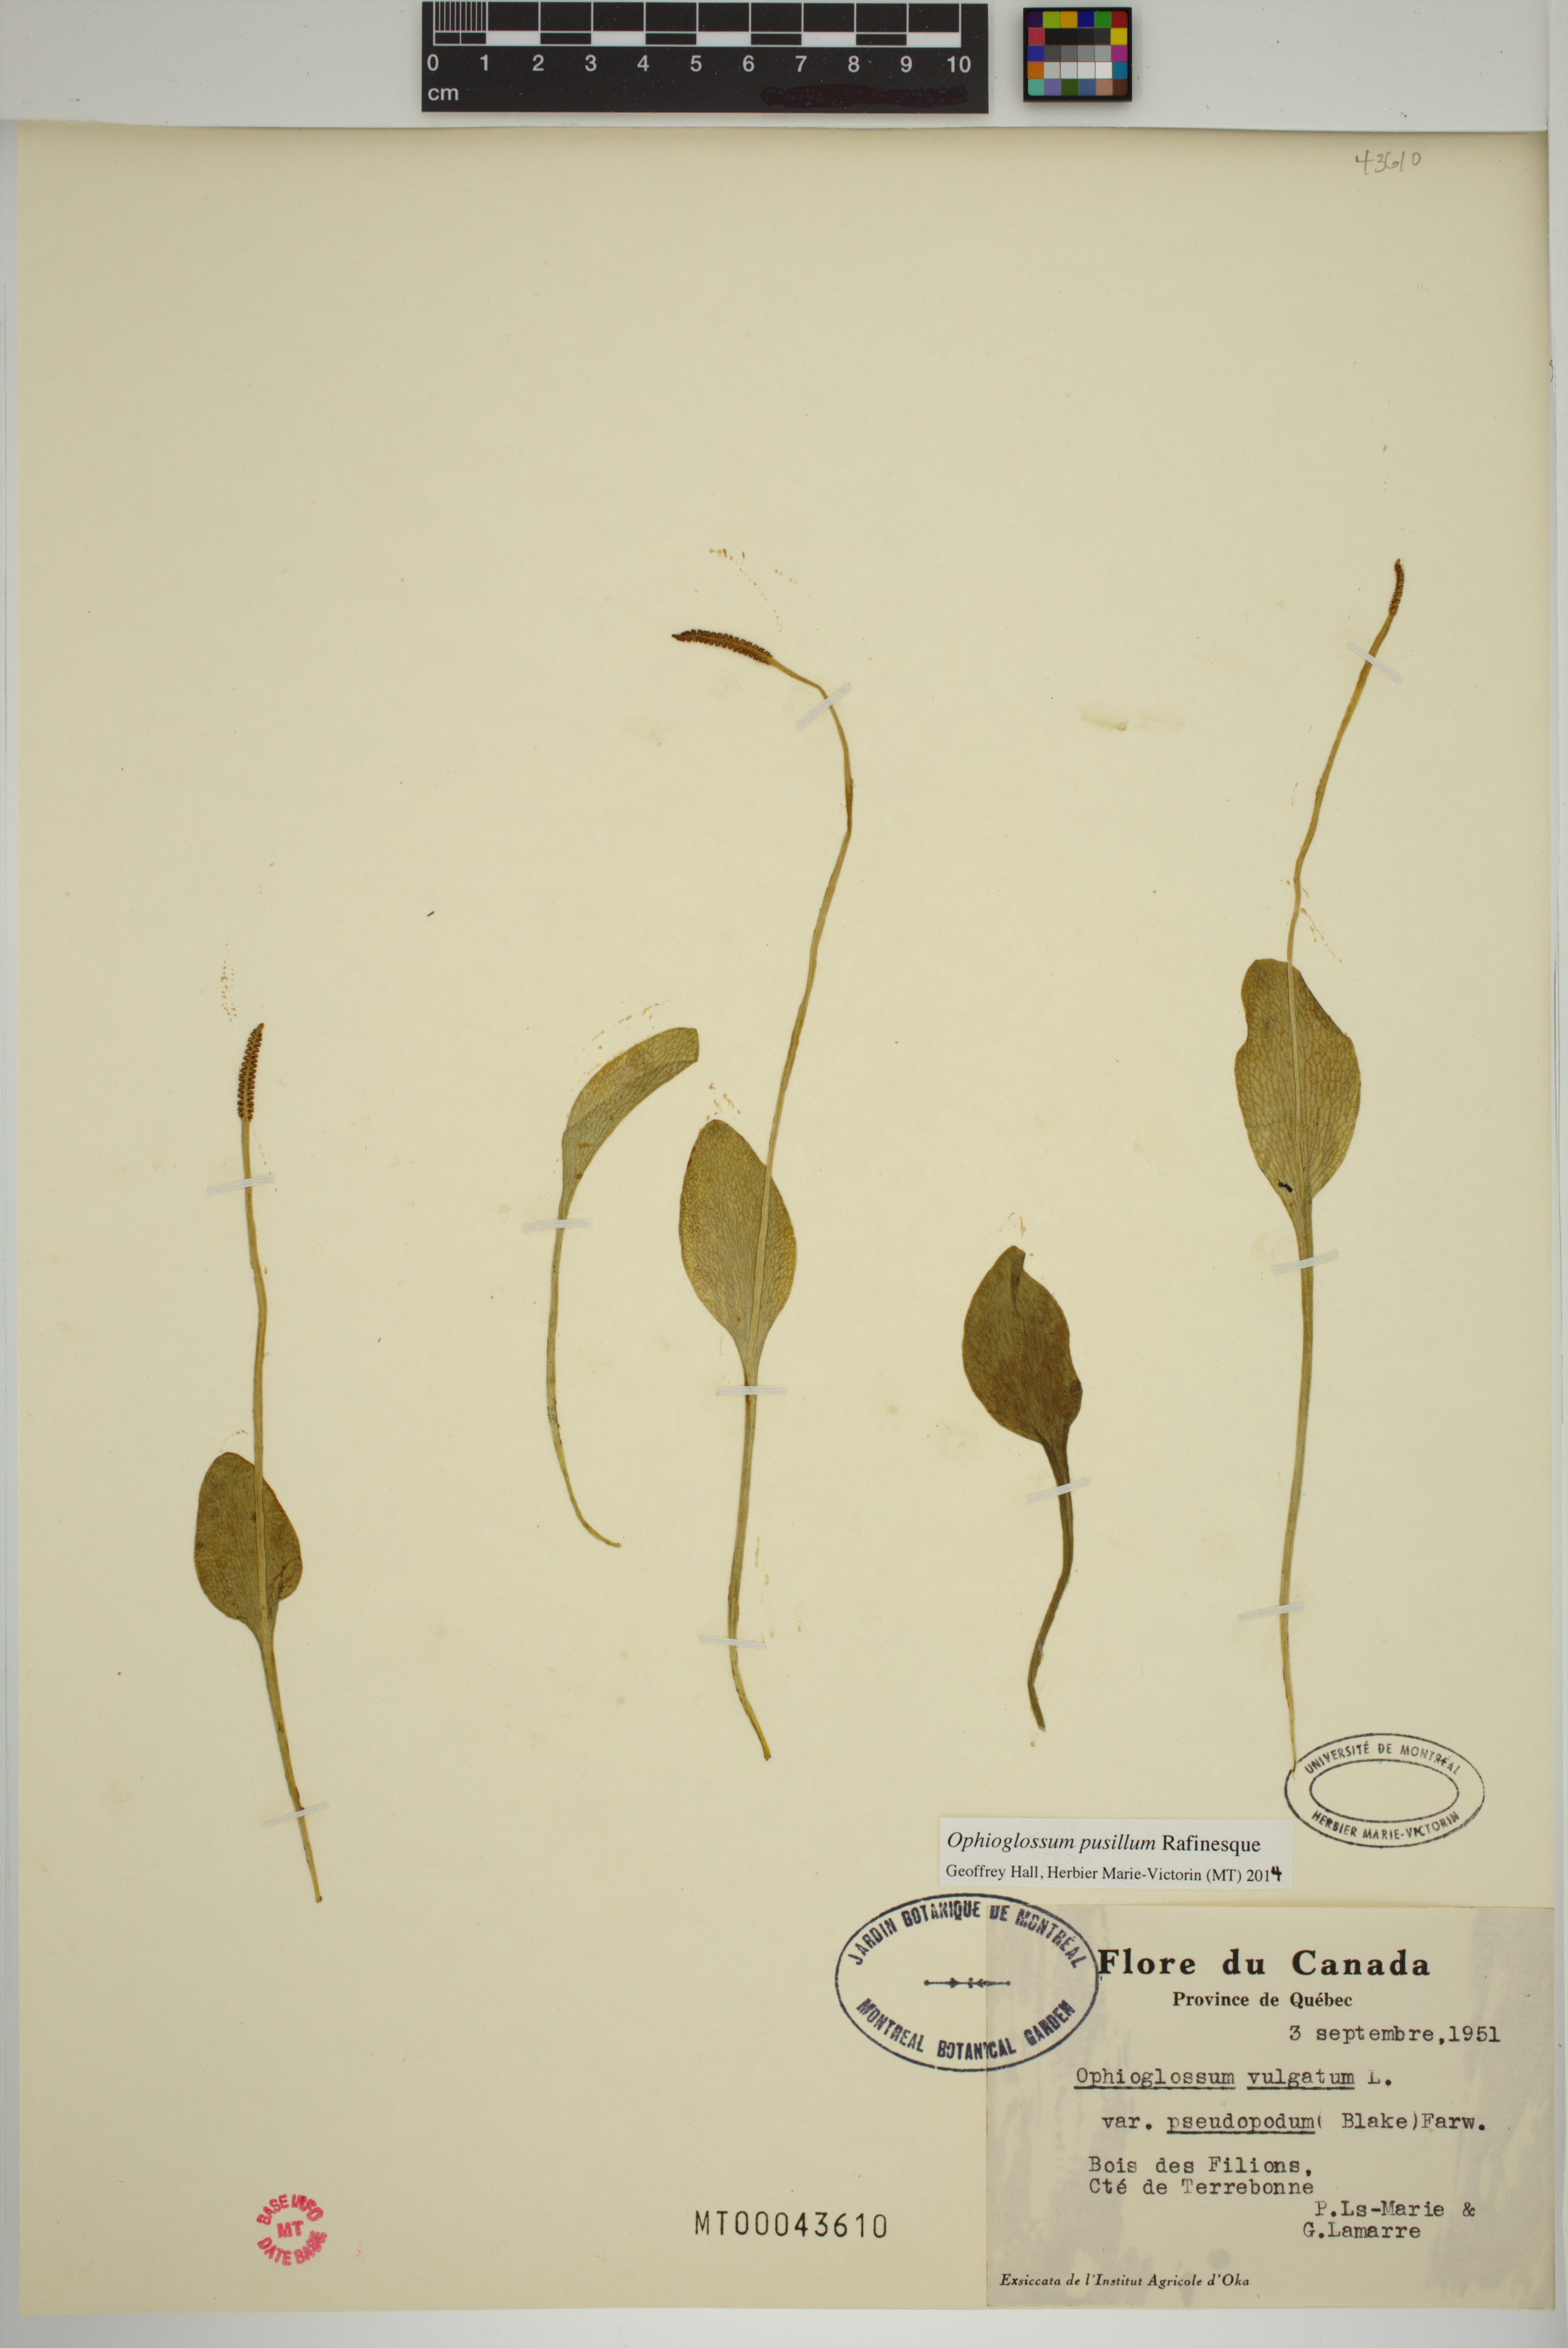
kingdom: Plantae
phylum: Tracheophyta
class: Polypodiopsida
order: Ophioglossales
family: Ophioglossaceae
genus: Ophioglossum
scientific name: Ophioglossum pusillum
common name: Northern adder's-tongue
